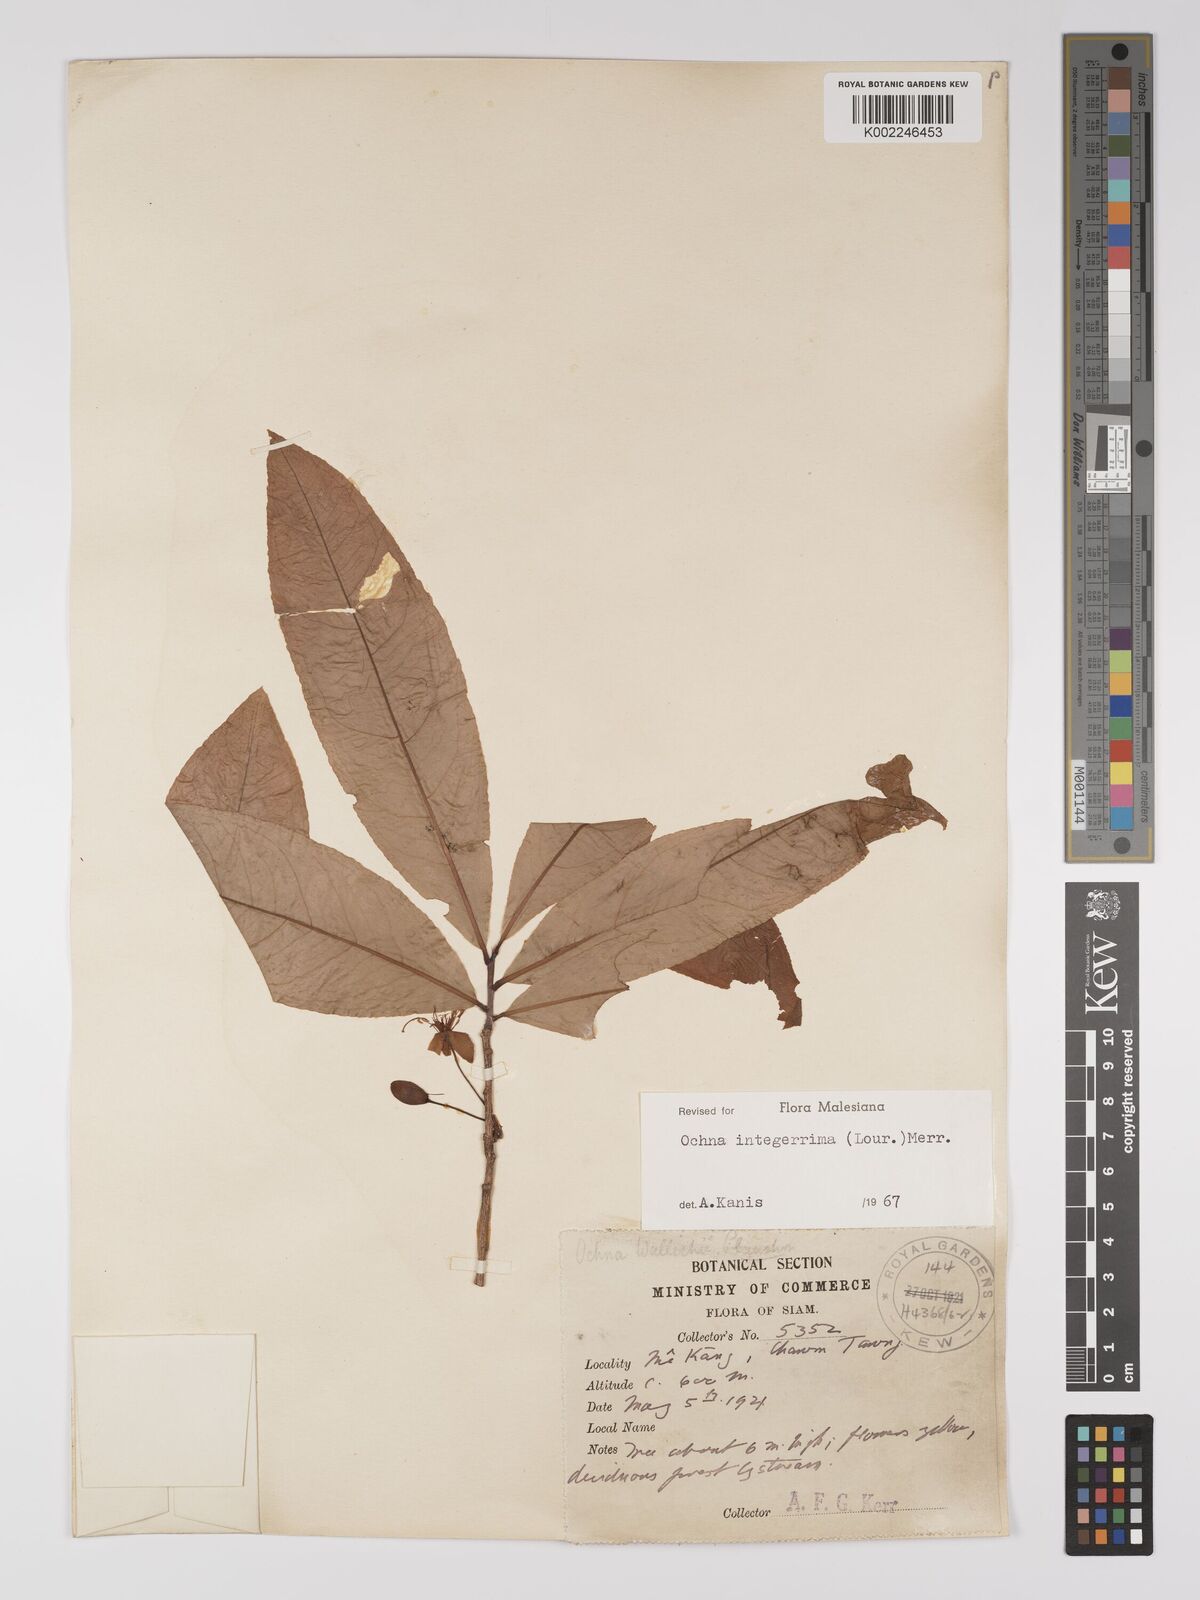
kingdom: Plantae
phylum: Tracheophyta
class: Magnoliopsida
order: Malpighiales
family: Ochnaceae
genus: Ochna
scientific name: Ochna integerrima
